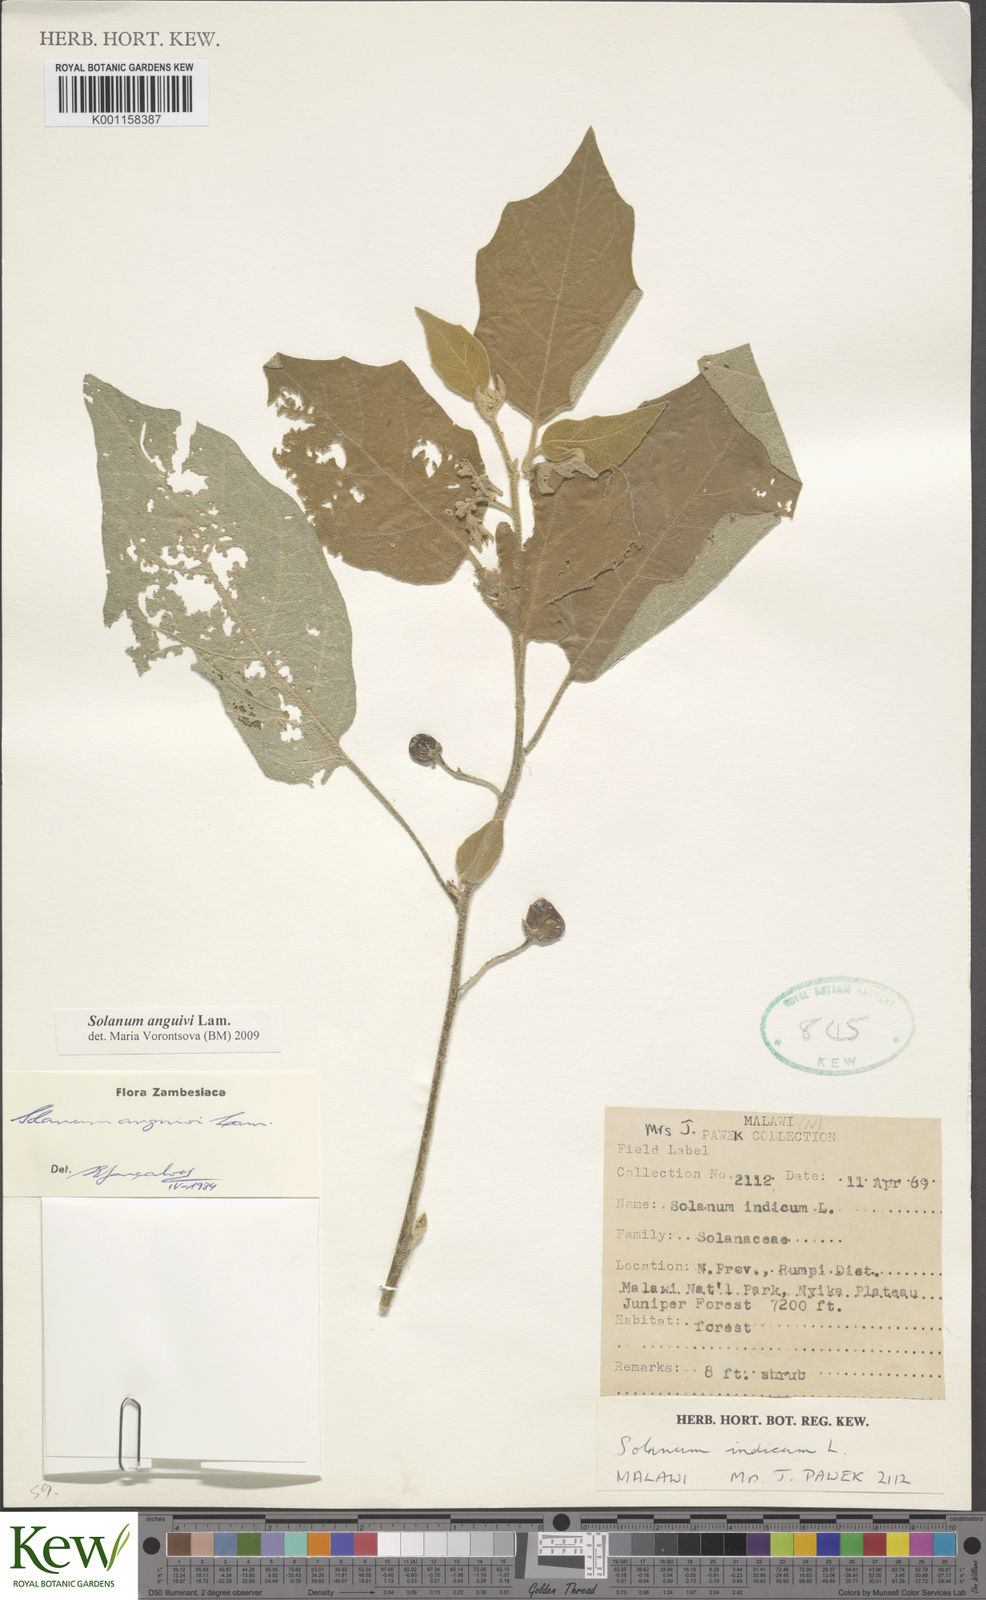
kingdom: Plantae
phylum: Tracheophyta
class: Magnoliopsida
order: Solanales
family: Solanaceae
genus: Solanum
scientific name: Solanum anguivi
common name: Forest bitterberry
